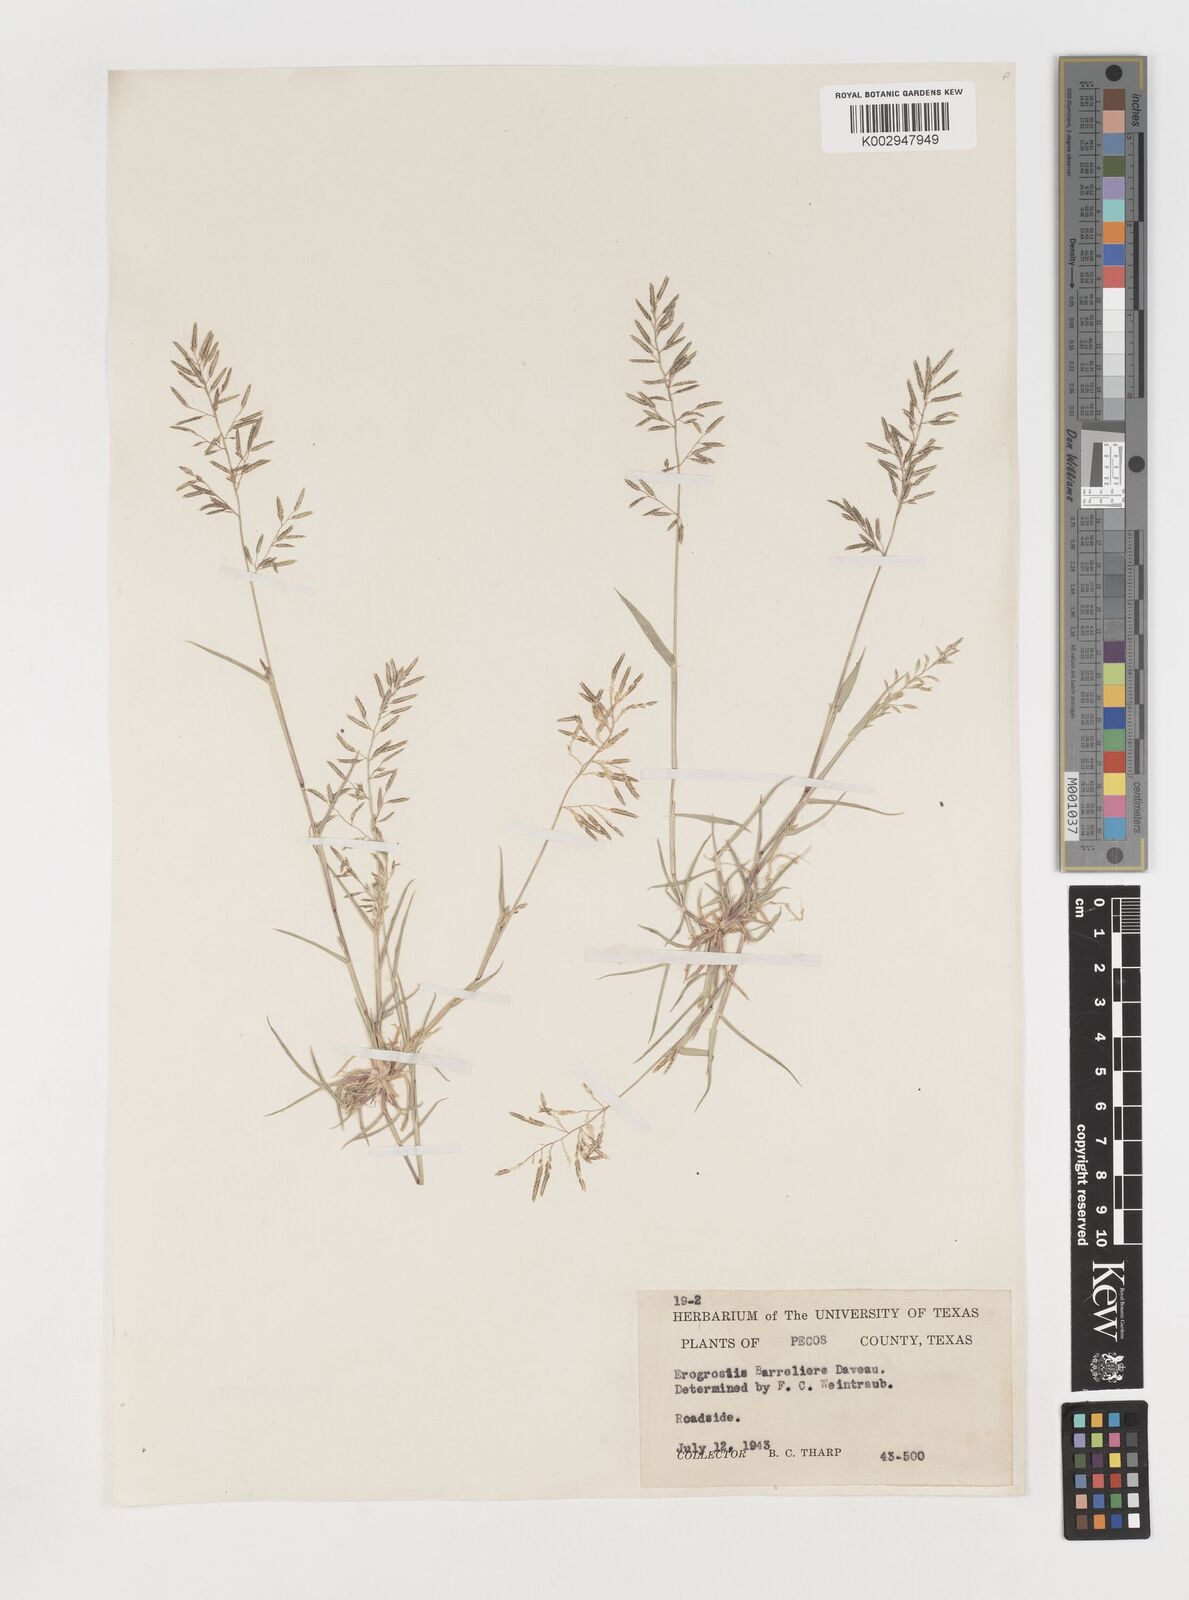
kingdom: Plantae
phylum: Tracheophyta
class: Liliopsida
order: Poales
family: Poaceae
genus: Eragrostis
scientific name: Eragrostis barrelieri
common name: Mediterranean lovegrass
